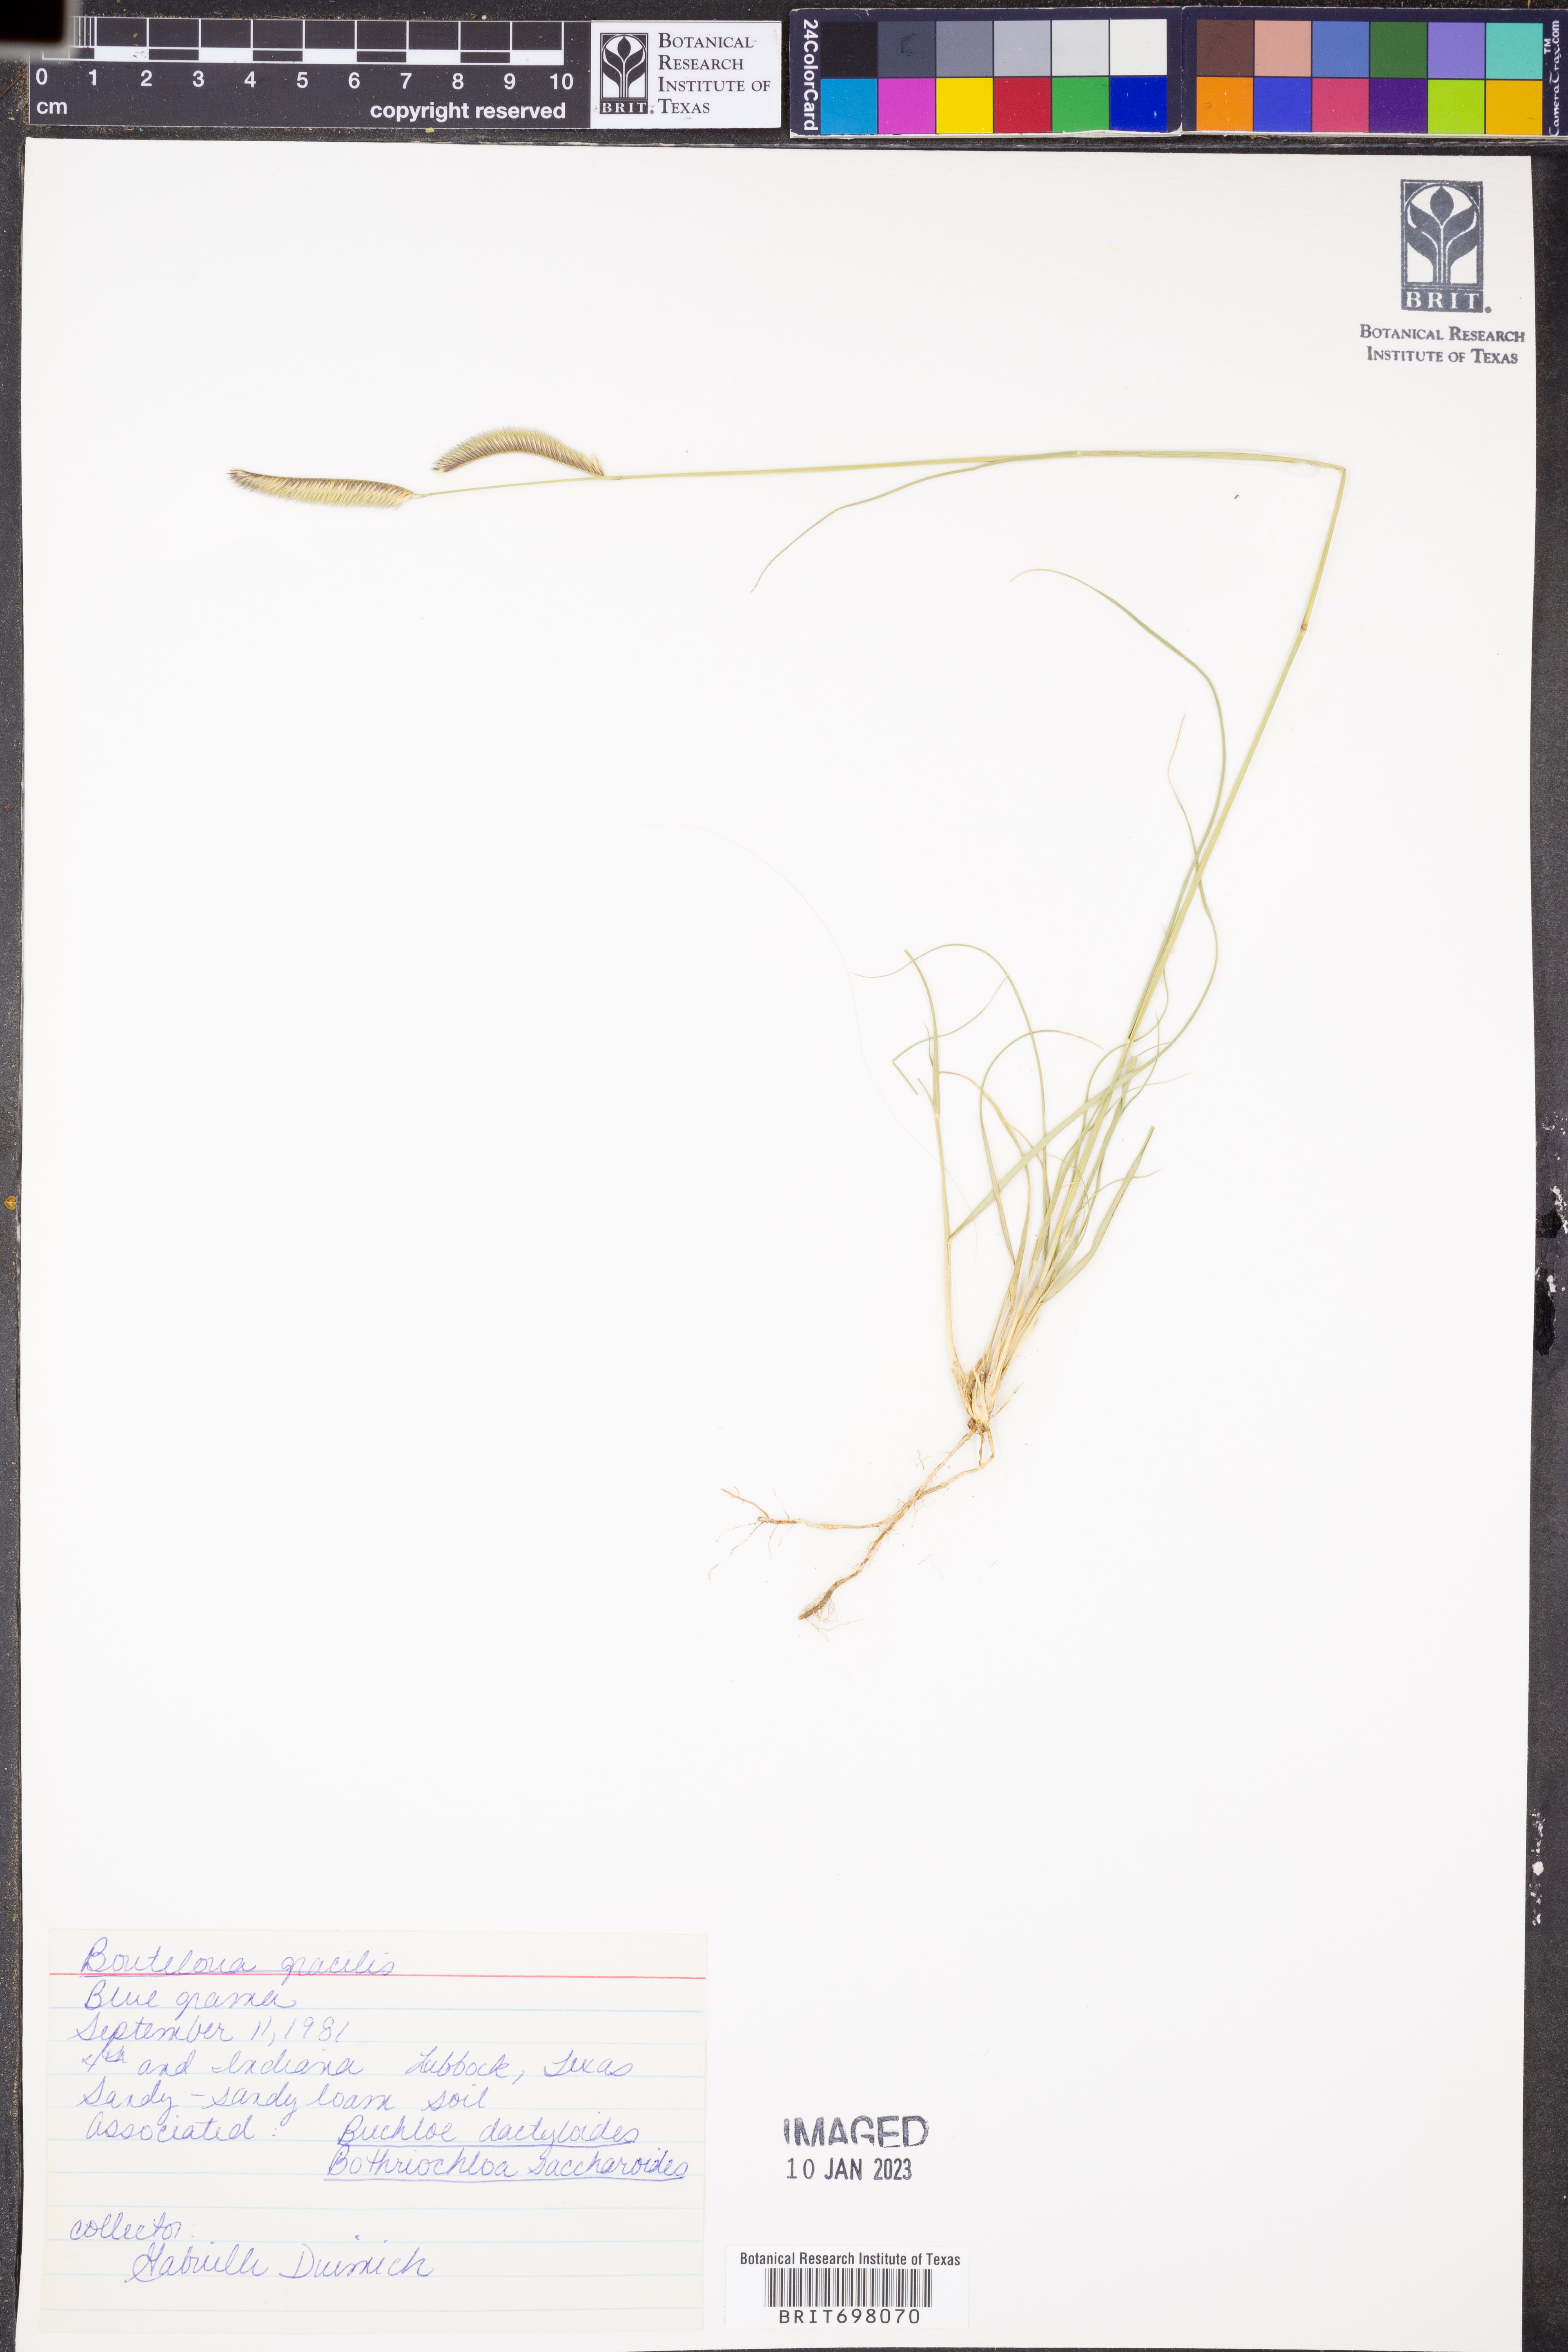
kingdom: Plantae
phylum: Tracheophyta
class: Liliopsida
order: Poales
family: Poaceae
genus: Bouteloua
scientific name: Bouteloua gracilis
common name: Blue grama
